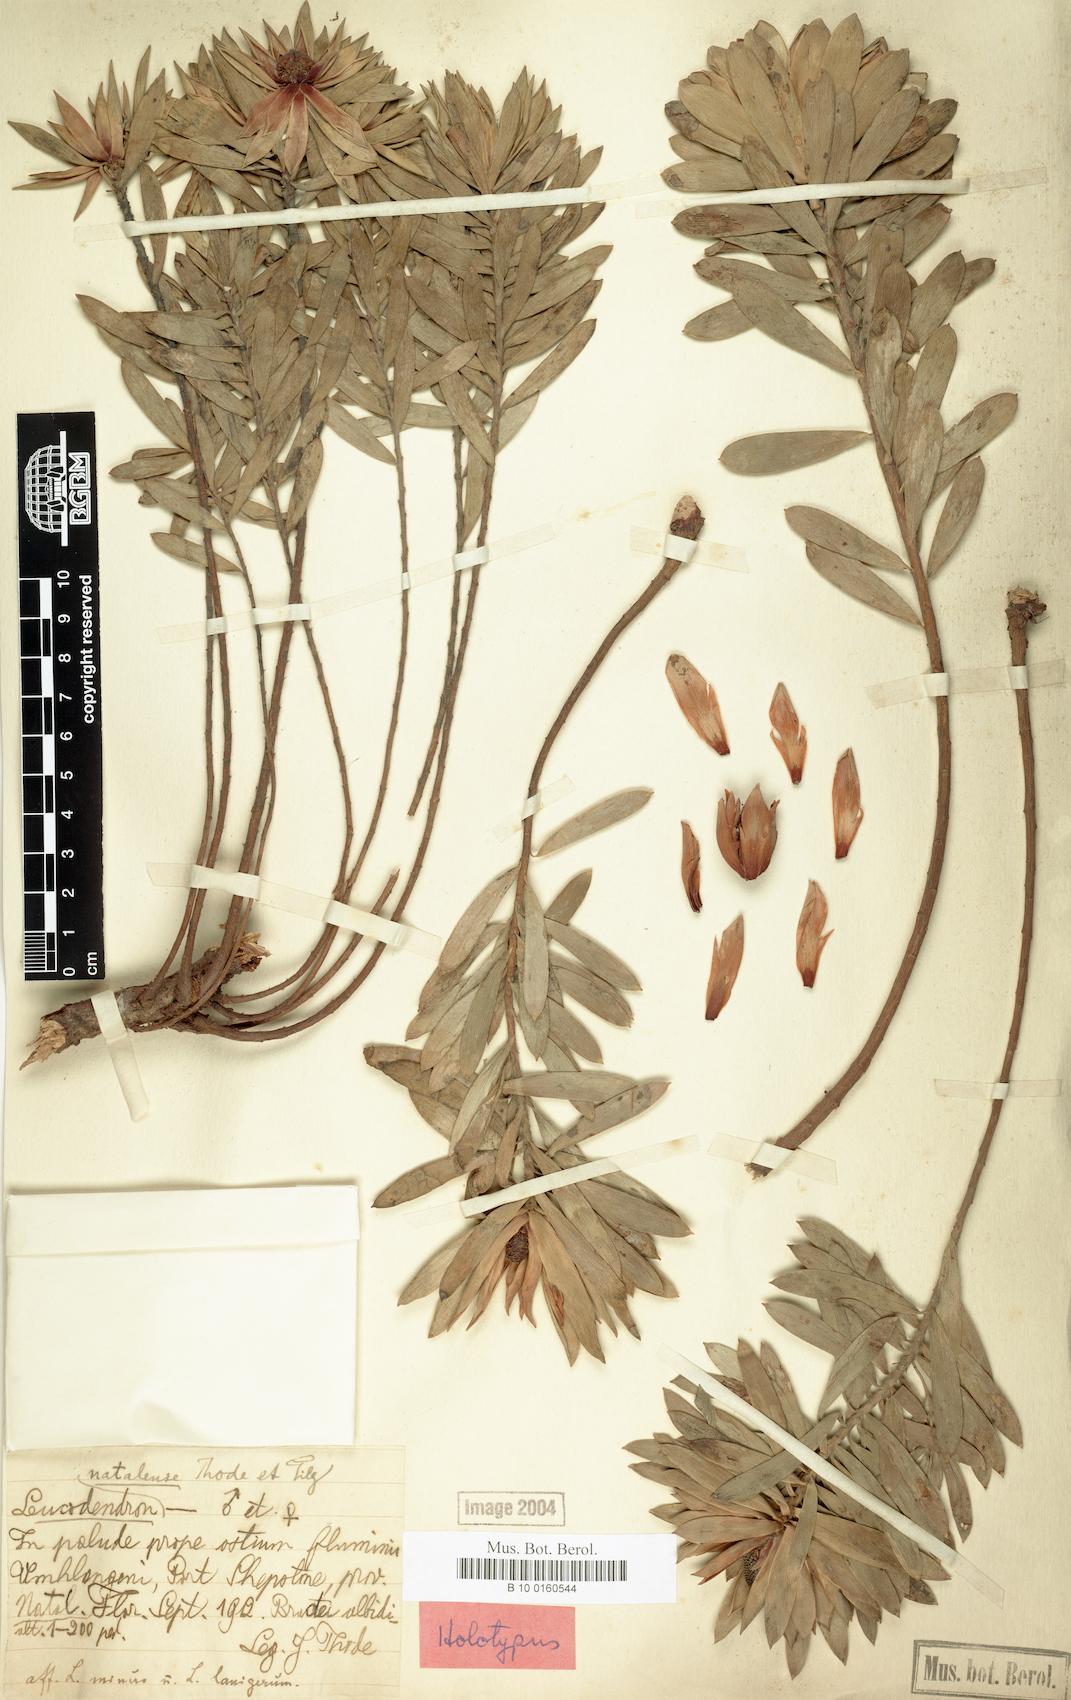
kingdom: Plantae
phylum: Tracheophyta
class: Magnoliopsida
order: Proteales
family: Proteaceae
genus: Leucadendron
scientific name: Leucadendron spissifolium
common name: Spear-leaf conebush
